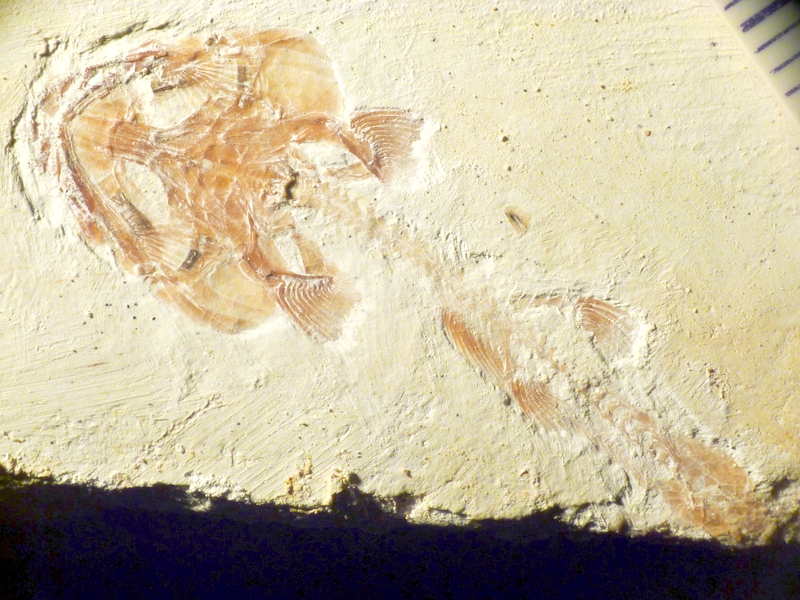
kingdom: Animalia
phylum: Chordata
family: Ophiopsiellidae
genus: Ophiopsiella
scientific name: Ophiopsiella attenuata
